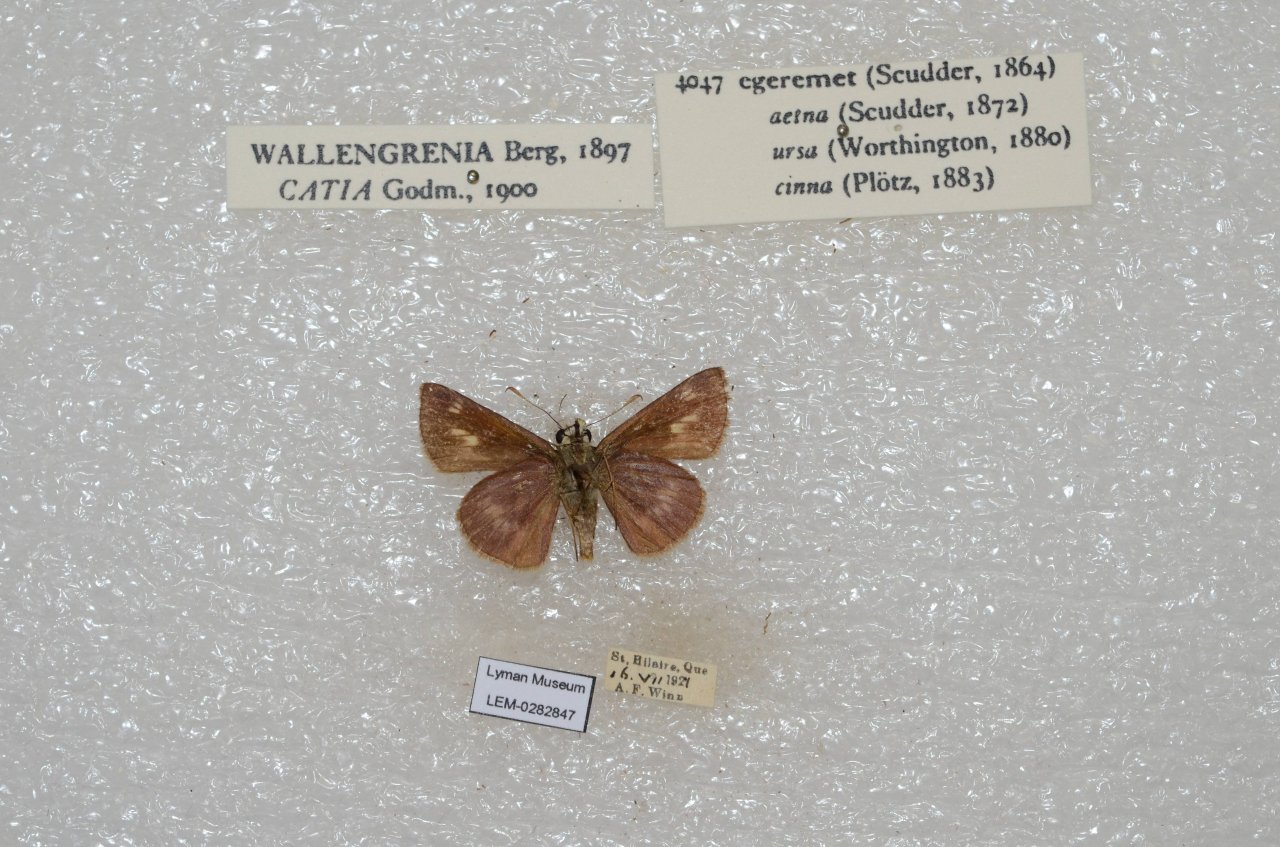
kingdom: Animalia
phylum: Arthropoda
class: Insecta
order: Lepidoptera
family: Hesperiidae
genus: Polites
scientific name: Polites egeremet
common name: Northern Broken-Dash
